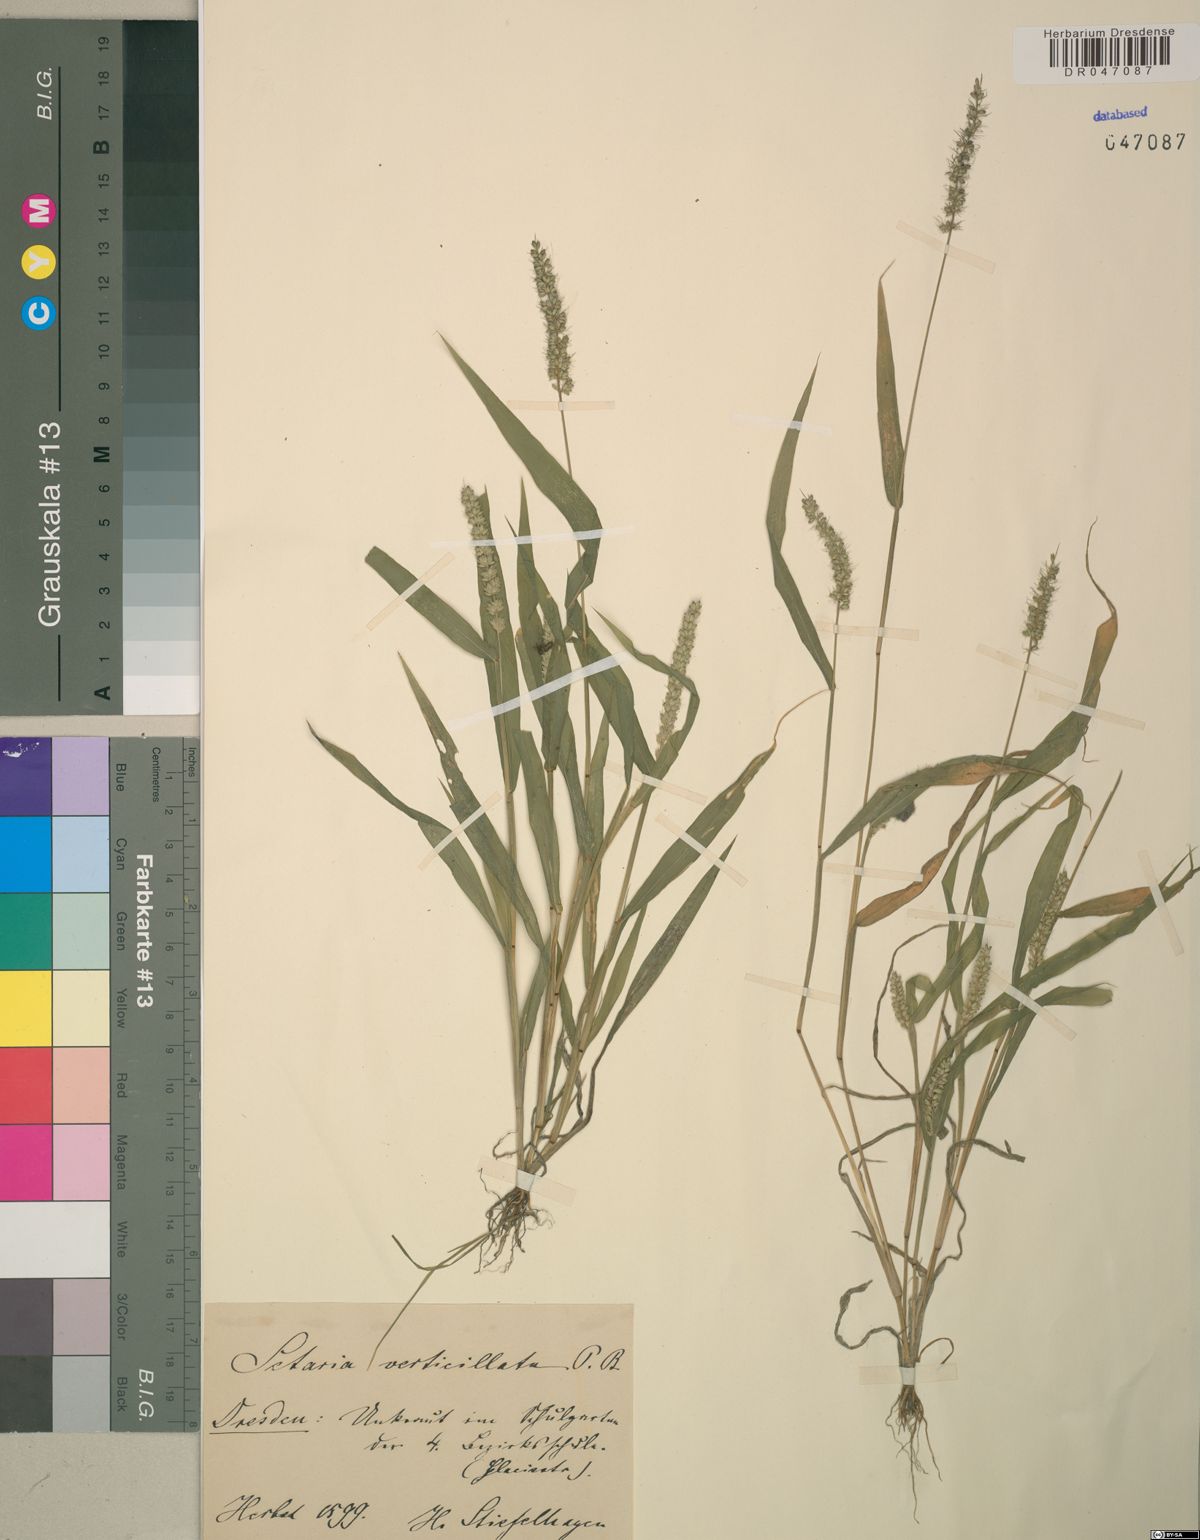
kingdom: Plantae
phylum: Tracheophyta
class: Liliopsida
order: Poales
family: Poaceae
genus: Setaria
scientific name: Setaria verticillata
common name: Hooked bristlegrass
